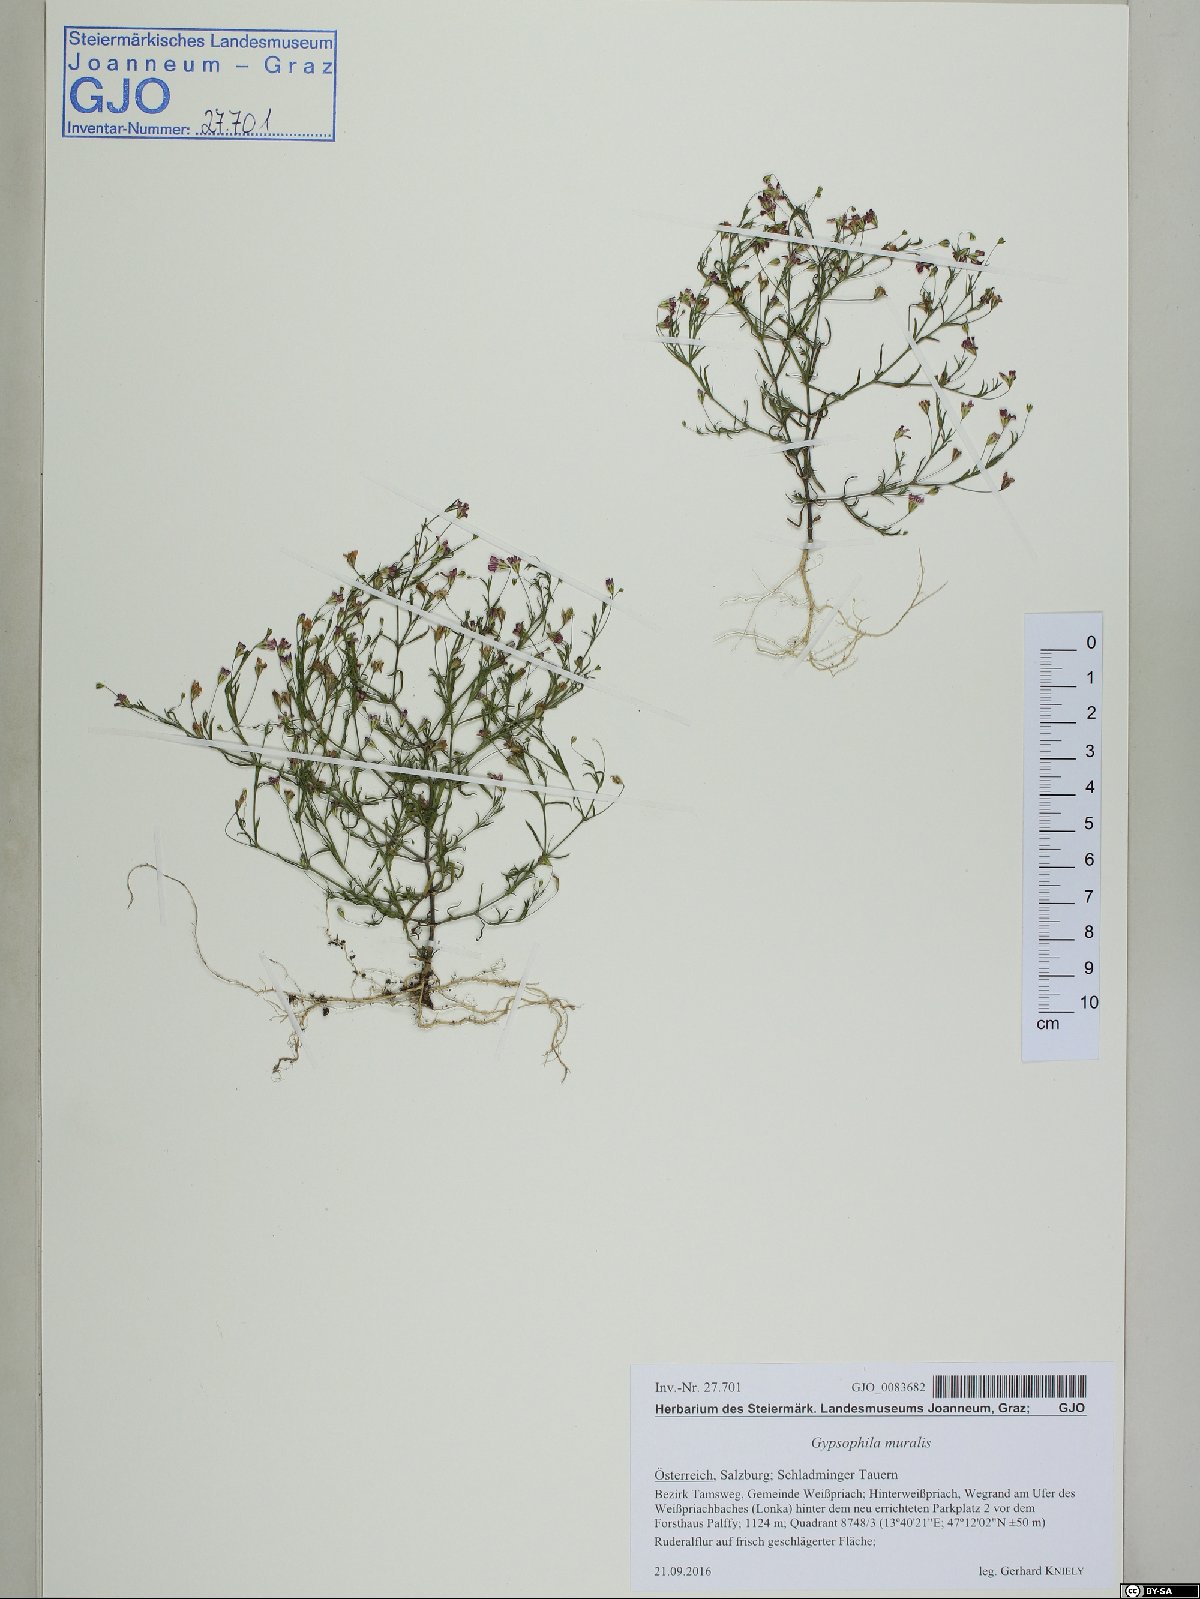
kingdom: Plantae
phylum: Tracheophyta
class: Magnoliopsida
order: Caryophyllales
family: Caryophyllaceae
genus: Psammophiliella
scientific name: Psammophiliella muralis
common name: Cushion baby's-breath
